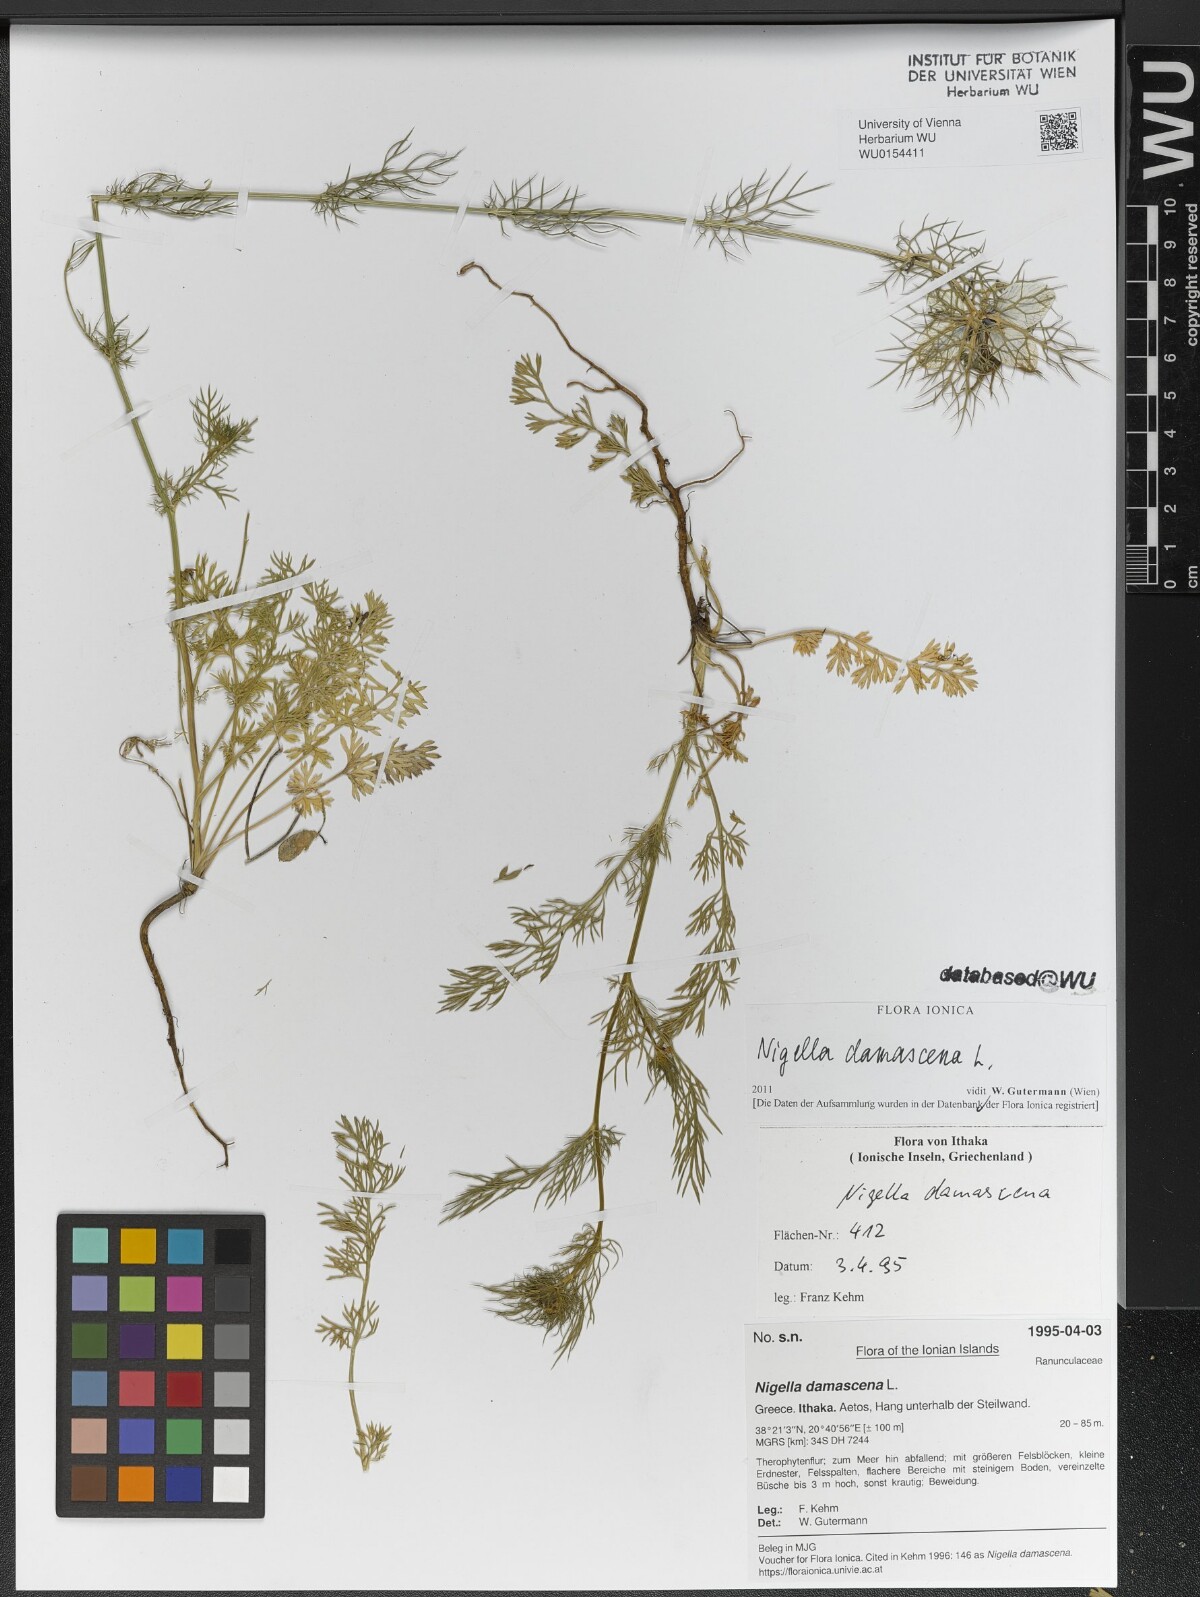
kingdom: Plantae
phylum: Tracheophyta
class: Magnoliopsida
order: Ranunculales
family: Ranunculaceae
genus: Nigella
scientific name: Nigella damascena
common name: Love-in-a-mist
